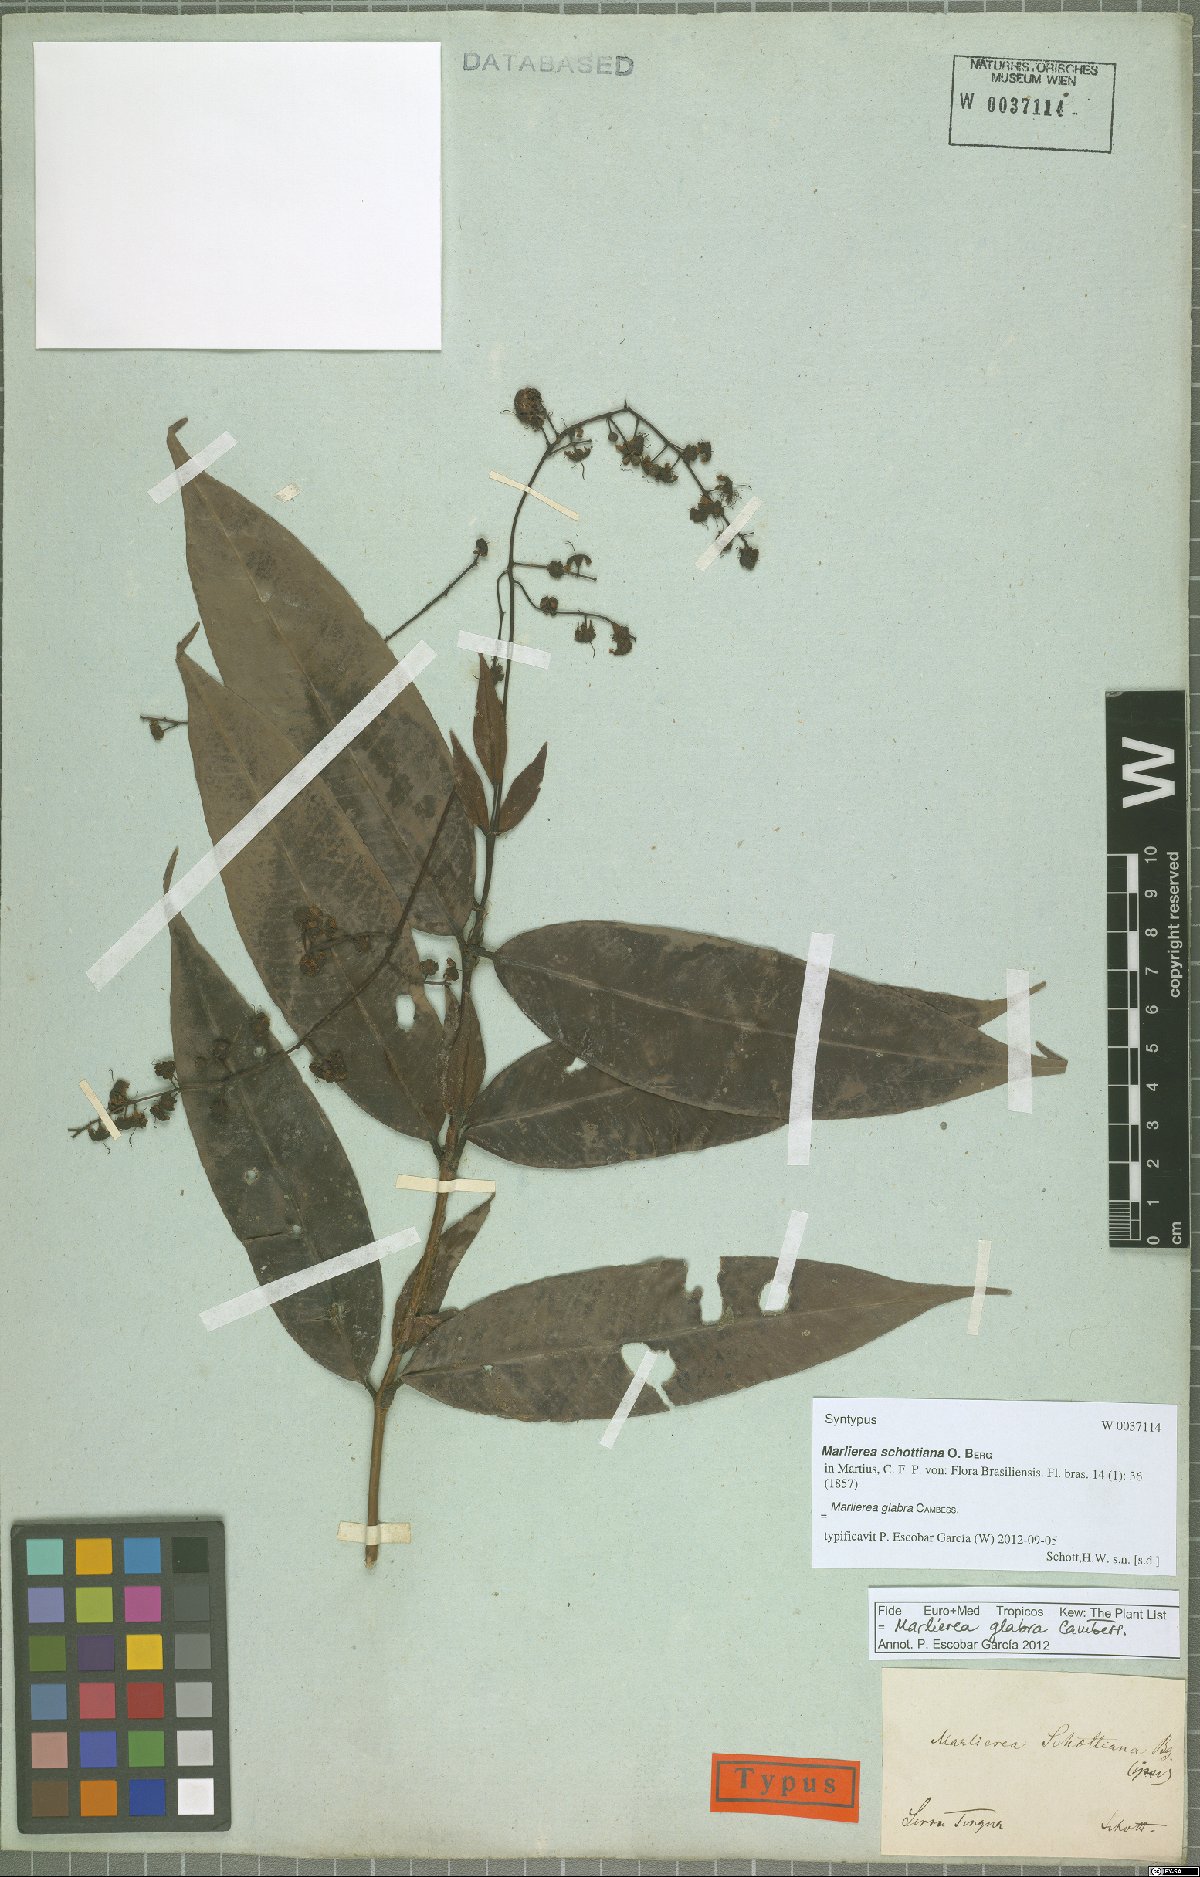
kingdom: Plantae
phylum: Tracheophyta
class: Magnoliopsida
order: Myrtales
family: Myrtaceae
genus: Myrcia
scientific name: Myrcia neoglabra
